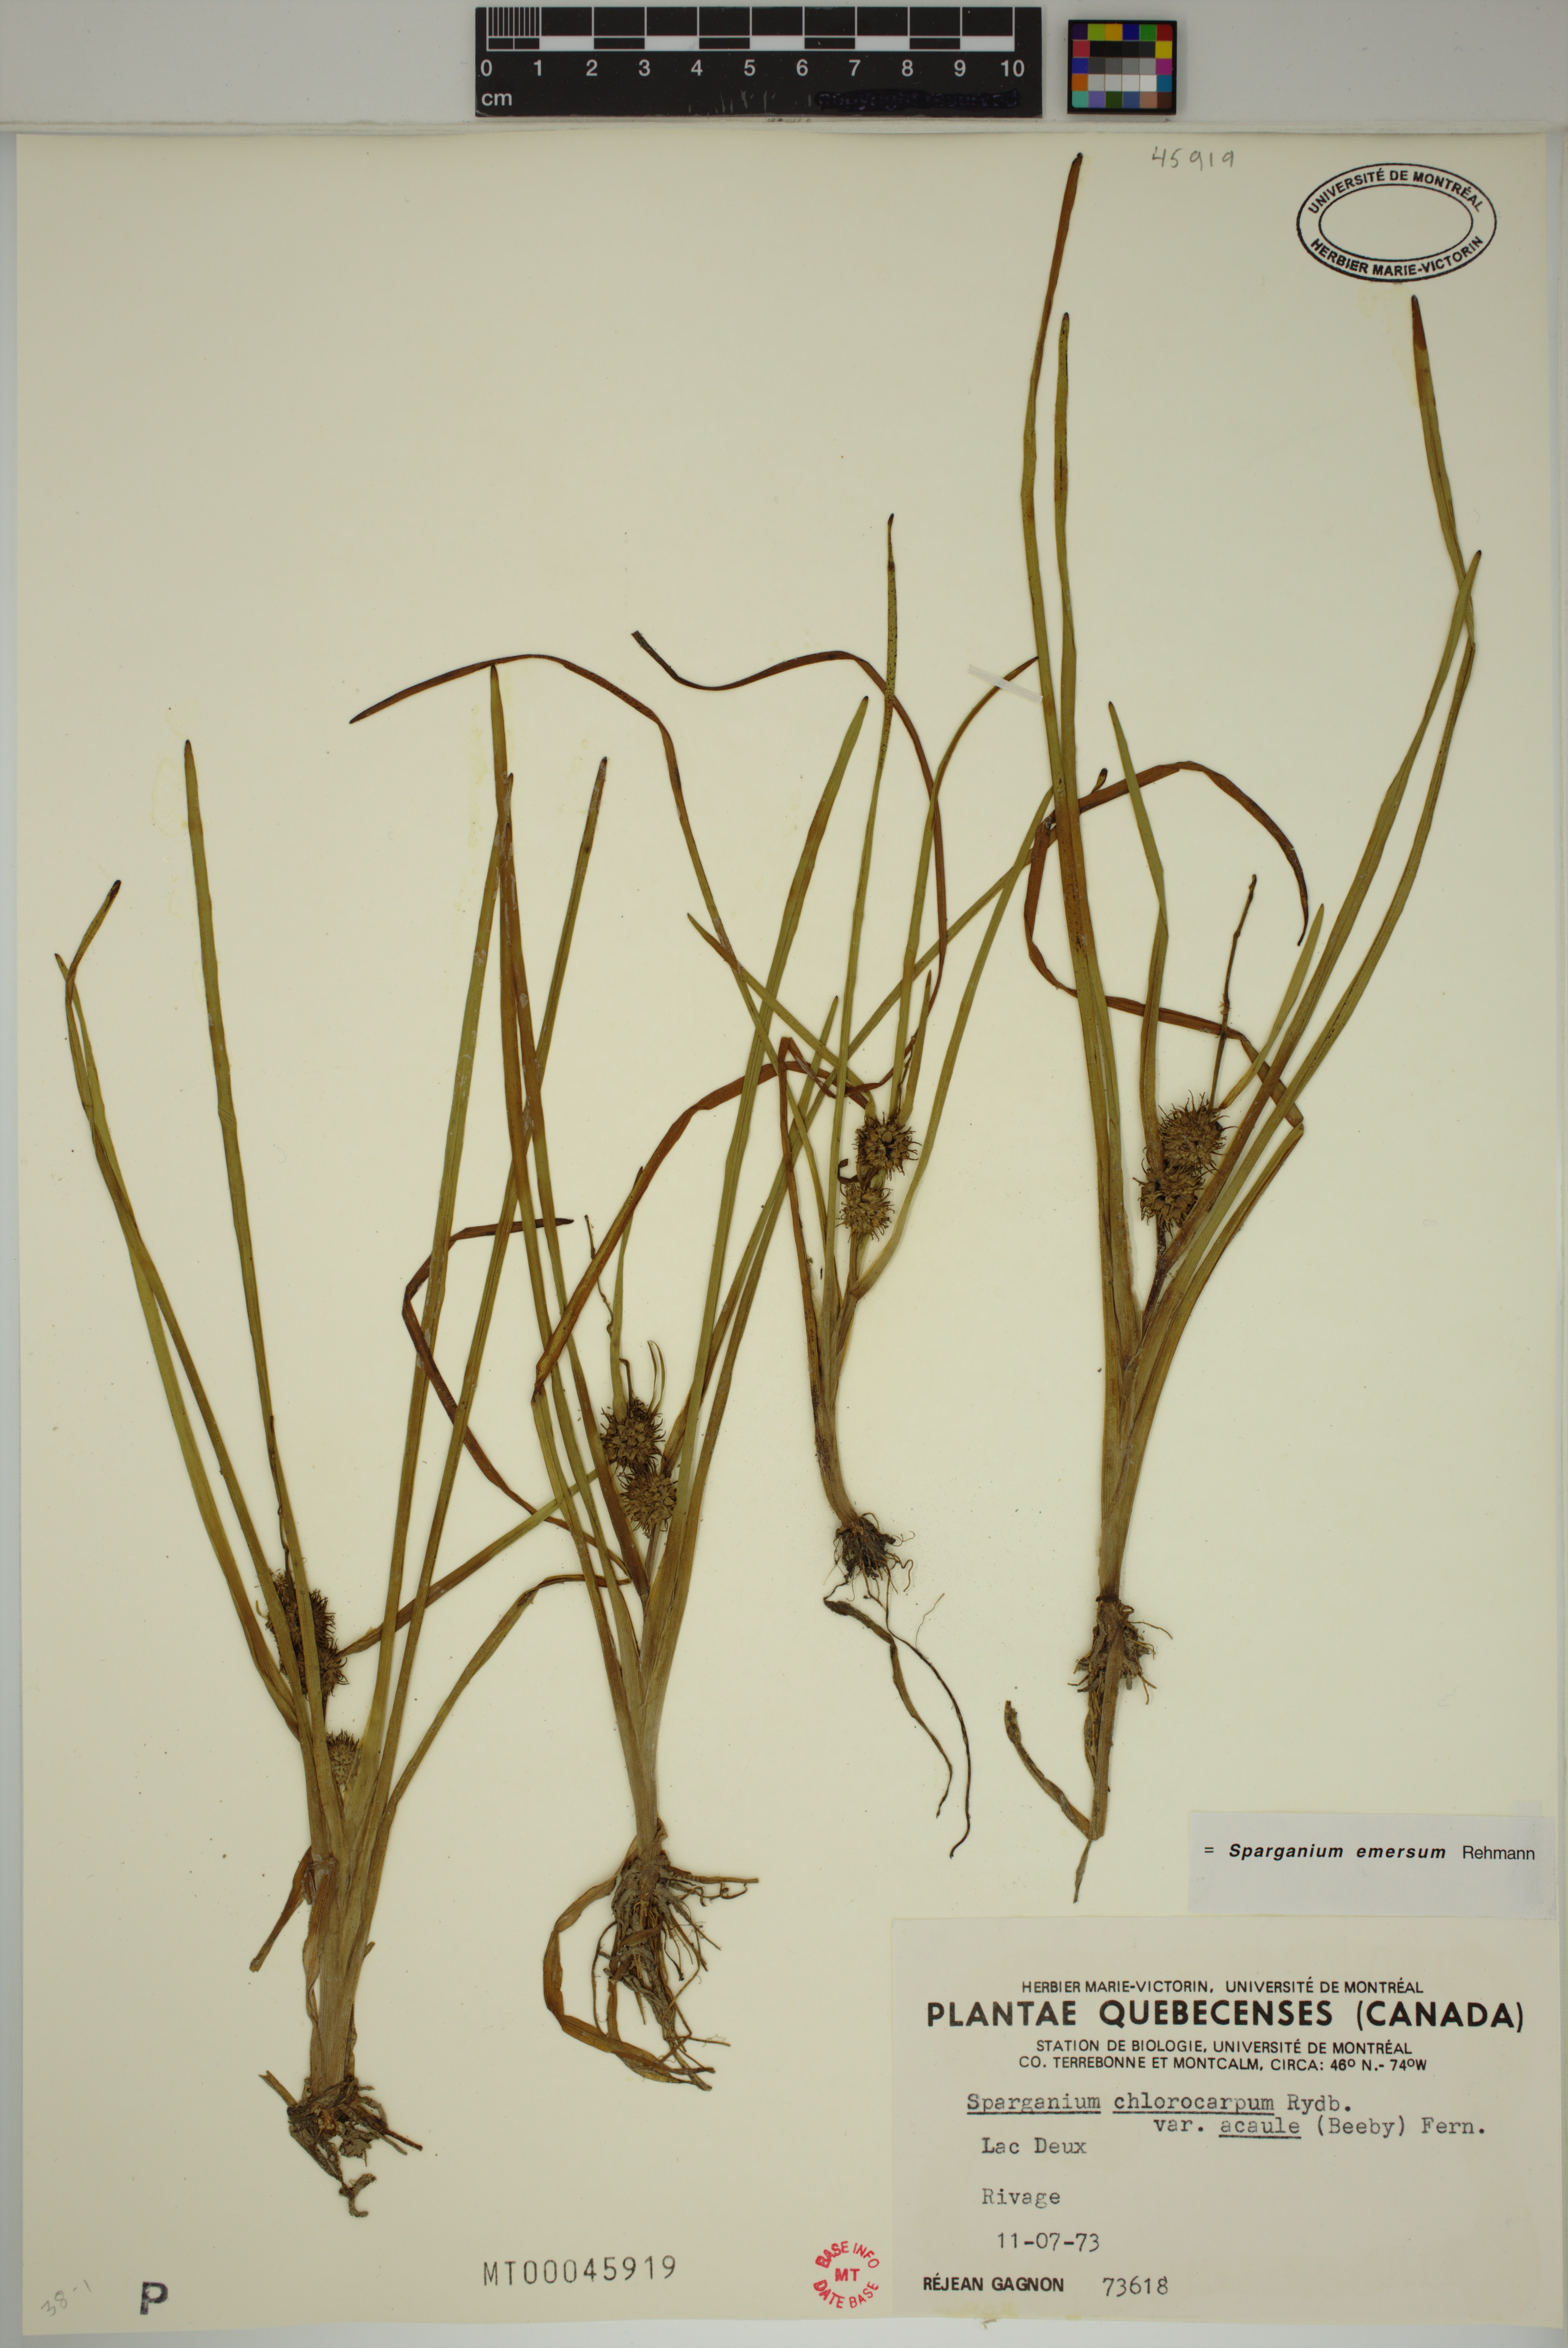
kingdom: Plantae
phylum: Tracheophyta
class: Liliopsida
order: Poales
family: Typhaceae
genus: Sparganium
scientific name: Sparganium emersum
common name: Unbranched bur-reed
